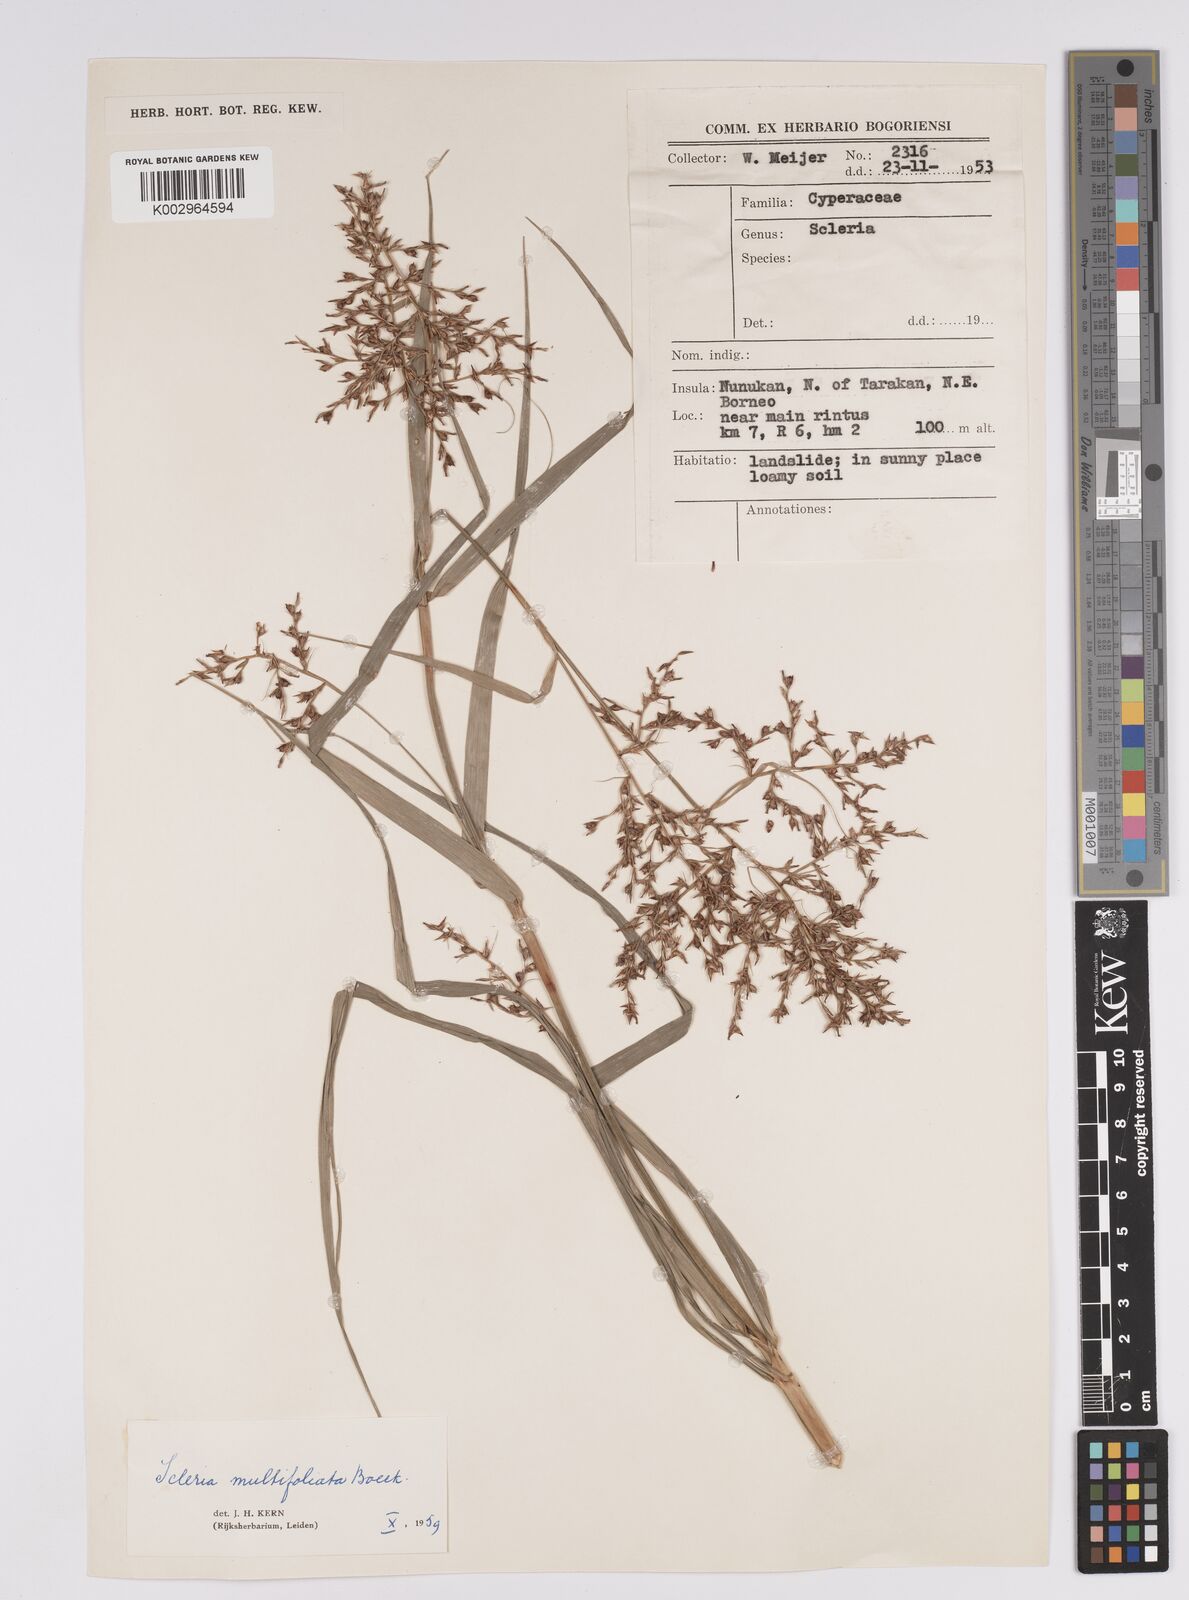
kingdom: Plantae
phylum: Tracheophyta
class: Liliopsida
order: Poales
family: Cyperaceae
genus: Scleria
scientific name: Scleria purpurascens
